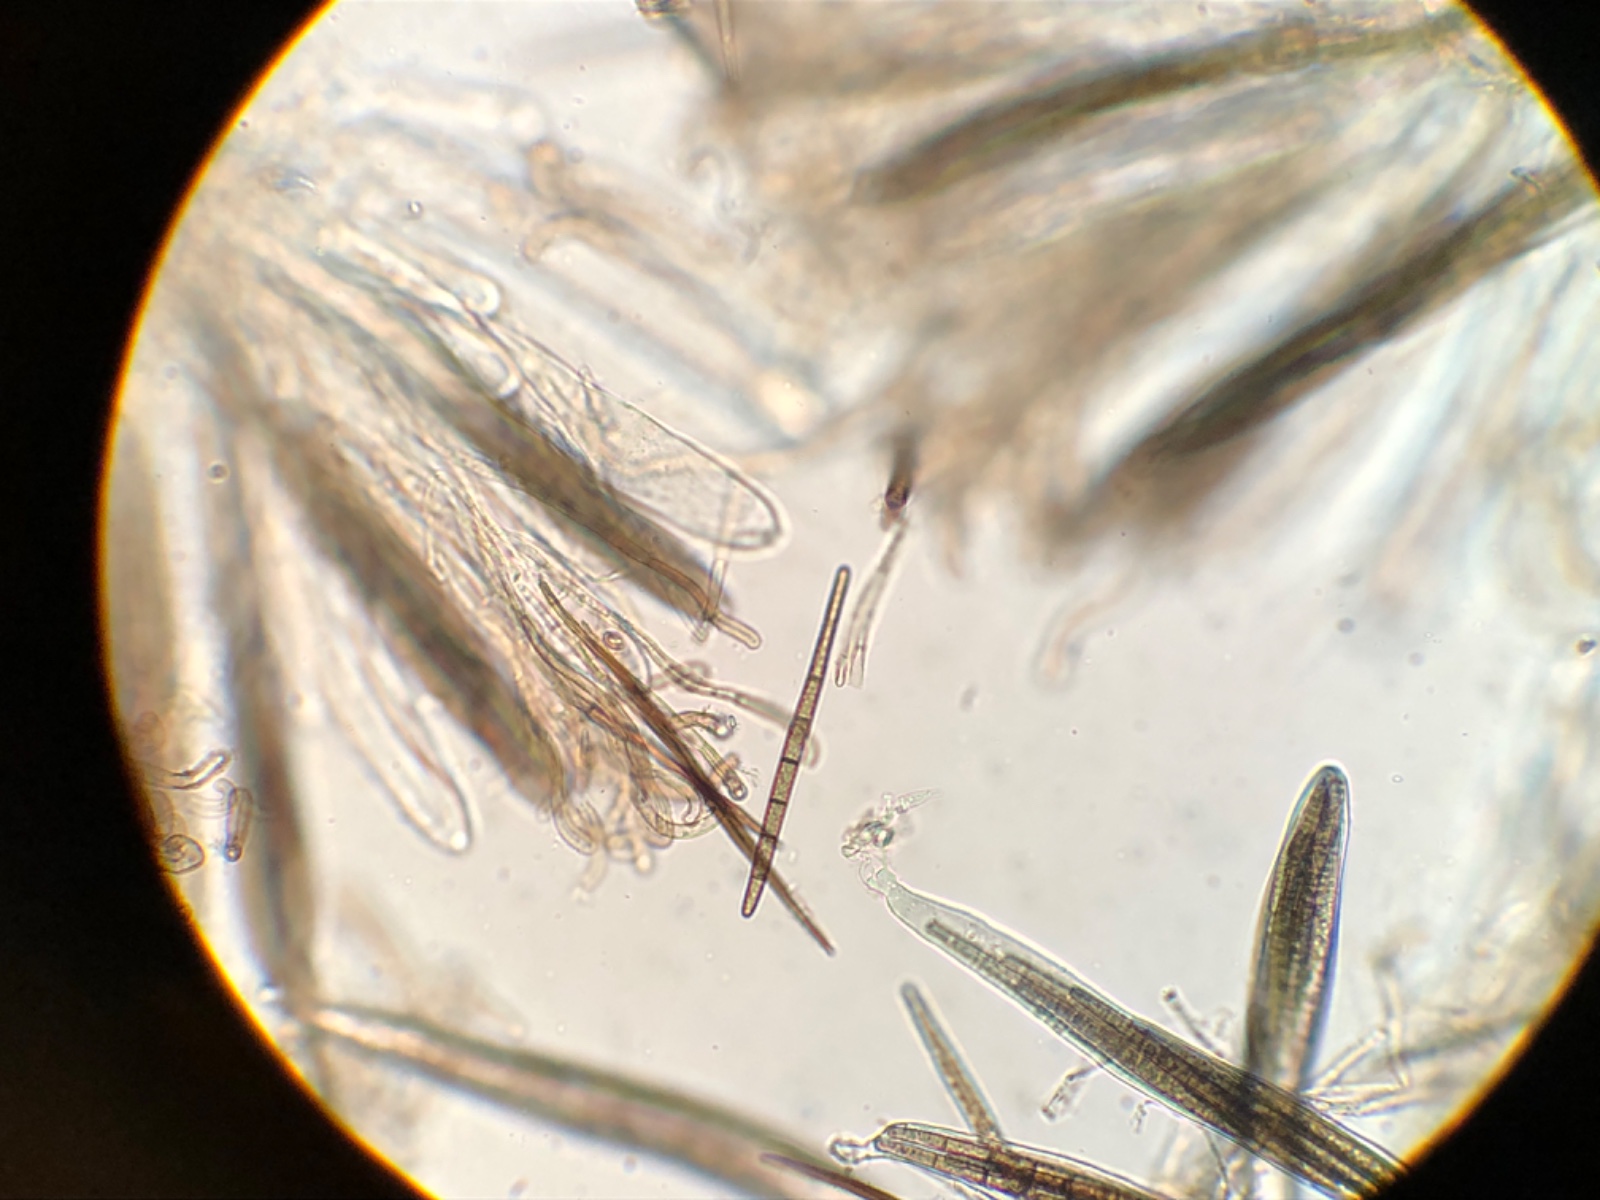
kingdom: Fungi
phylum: Ascomycota
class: Geoglossomycetes
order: Geoglossales
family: Geoglossaceae
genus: Trichoglossum
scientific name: Trichoglossum walteri
